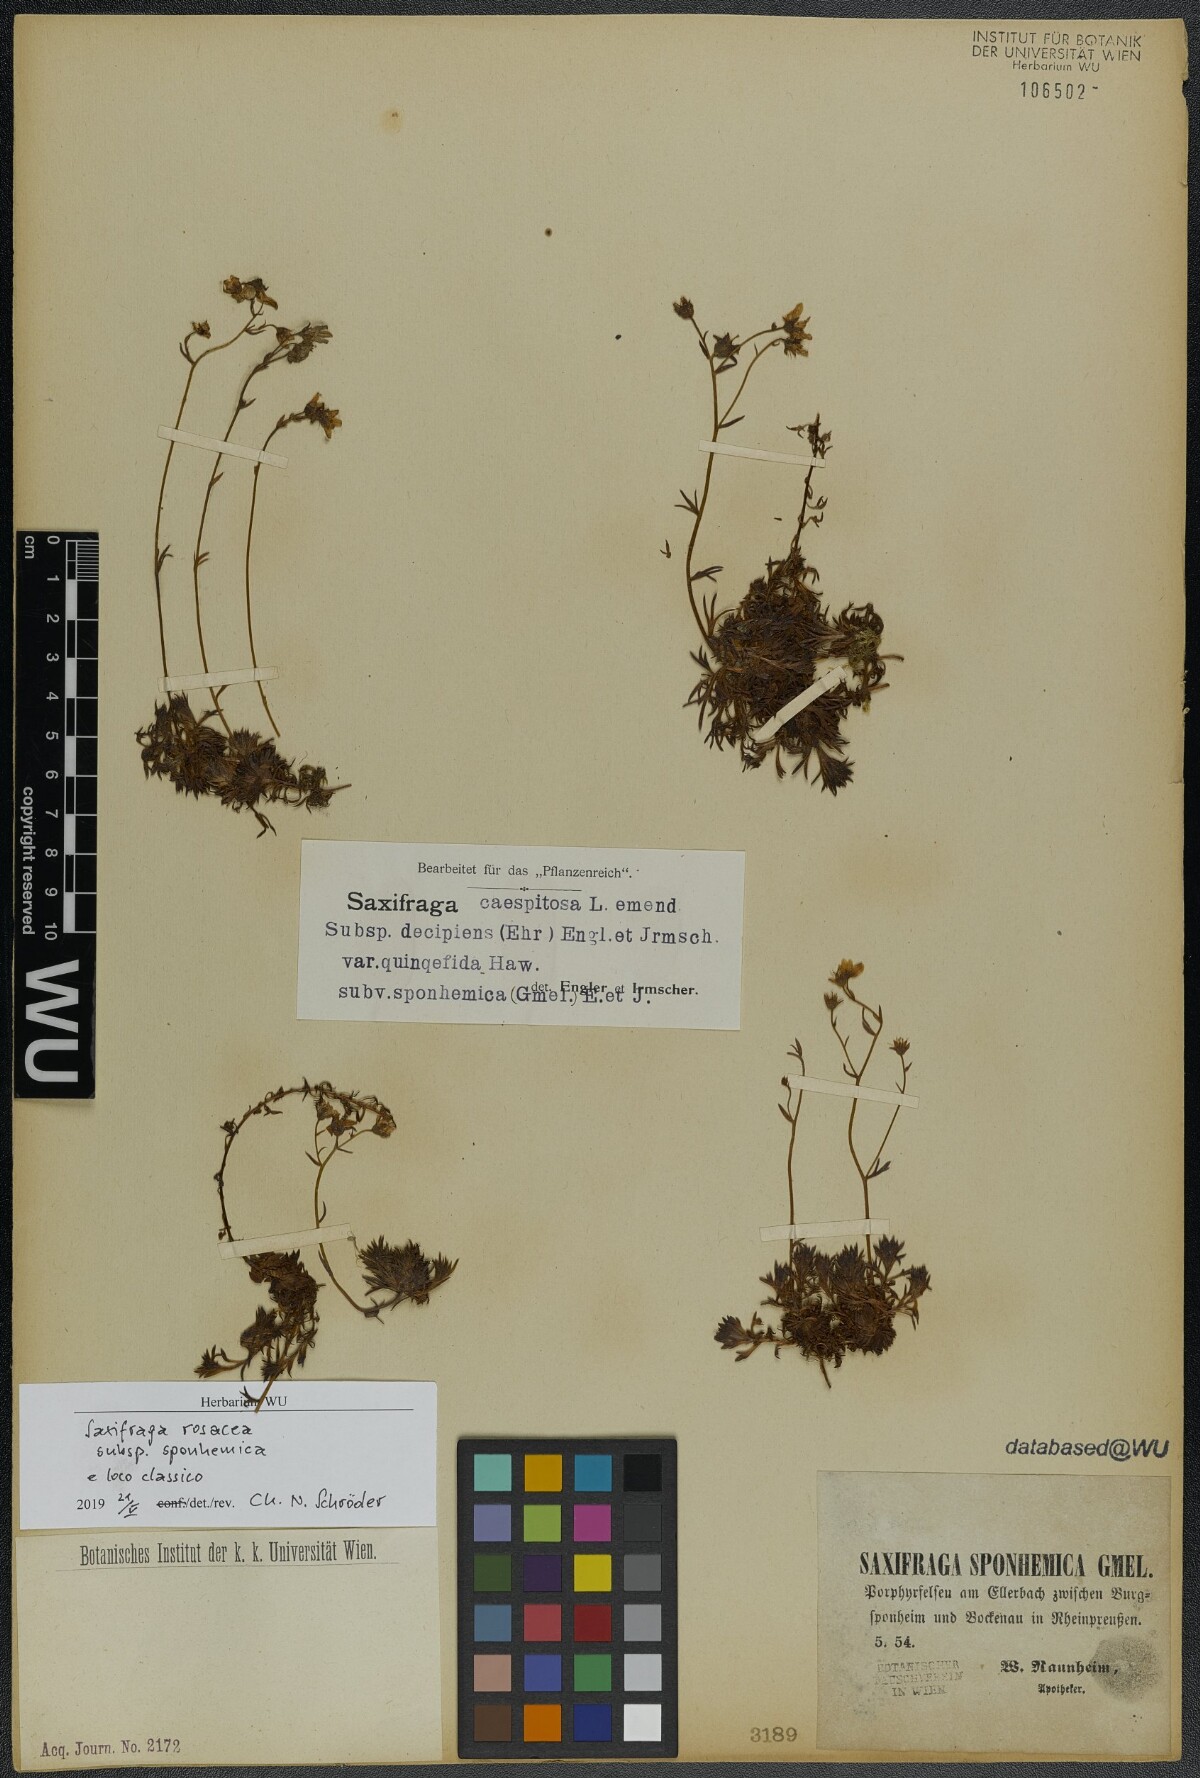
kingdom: Plantae
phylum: Tracheophyta
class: Magnoliopsida
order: Saxifragales
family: Saxifragaceae
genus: Saxifraga
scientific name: Saxifraga rosacea
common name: Irish saxifrage
